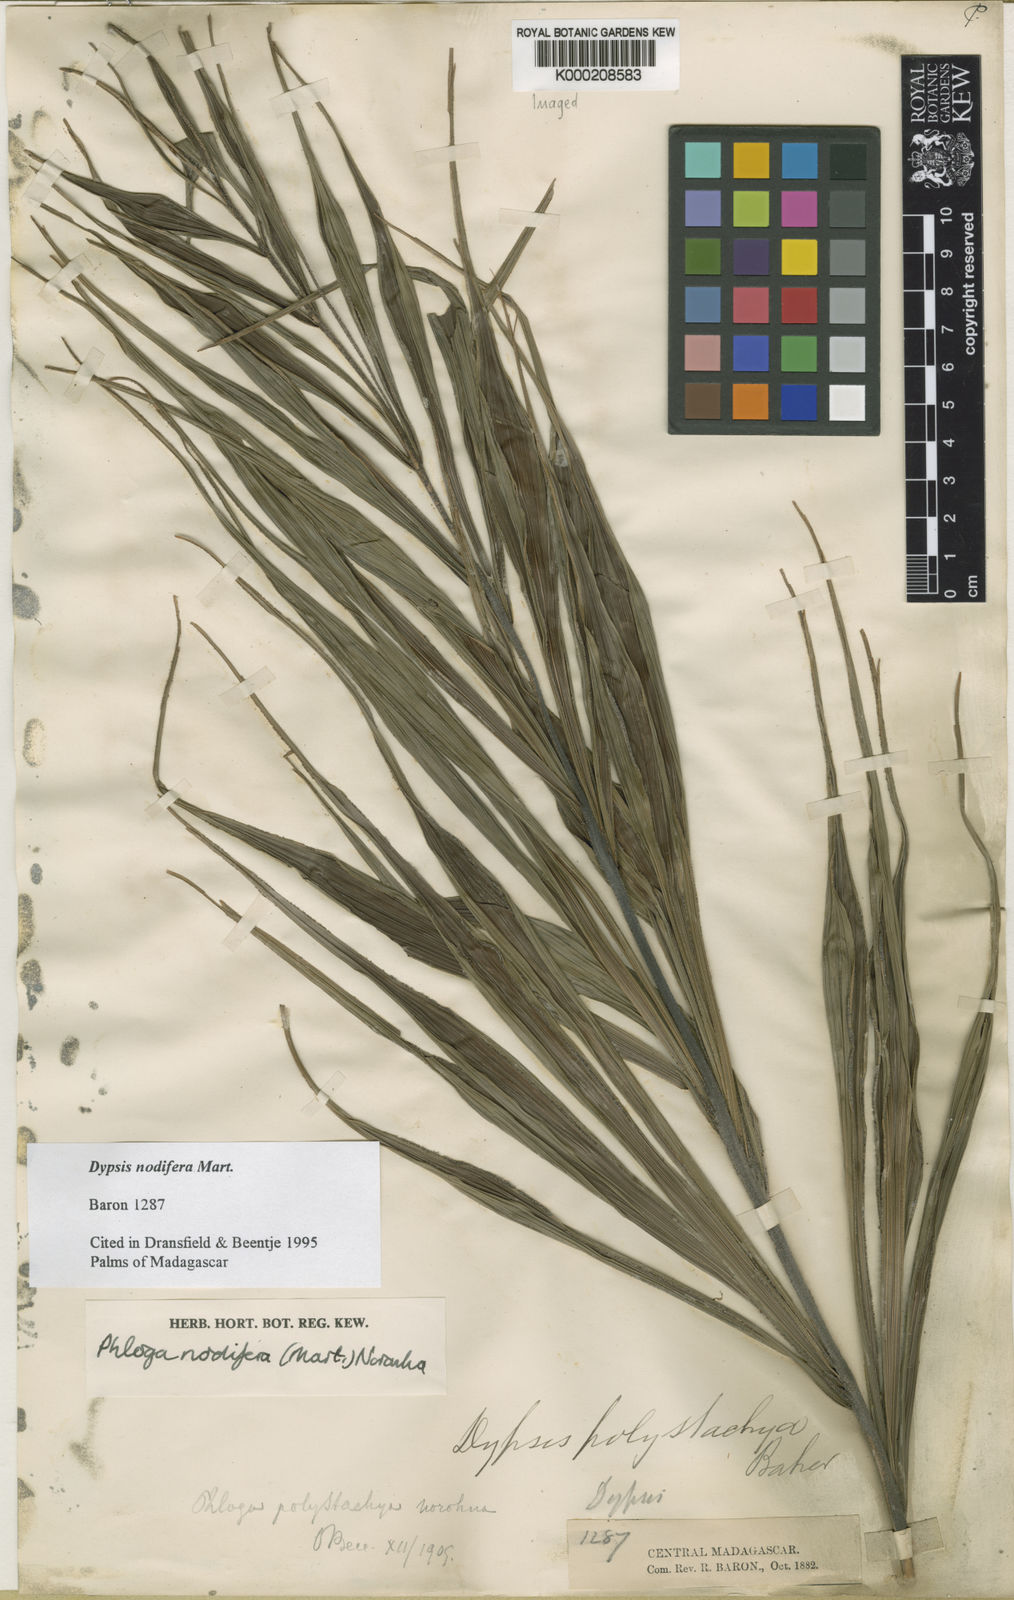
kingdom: Plantae
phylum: Tracheophyta
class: Liliopsida
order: Arecales
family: Arecaceae
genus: Dypsis
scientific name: Dypsis nodifera
